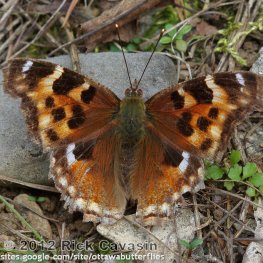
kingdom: Animalia
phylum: Arthropoda
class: Insecta
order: Lepidoptera
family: Nymphalidae
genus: Polygonia
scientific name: Polygonia vaualbum
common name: Compton Tortoiseshell
